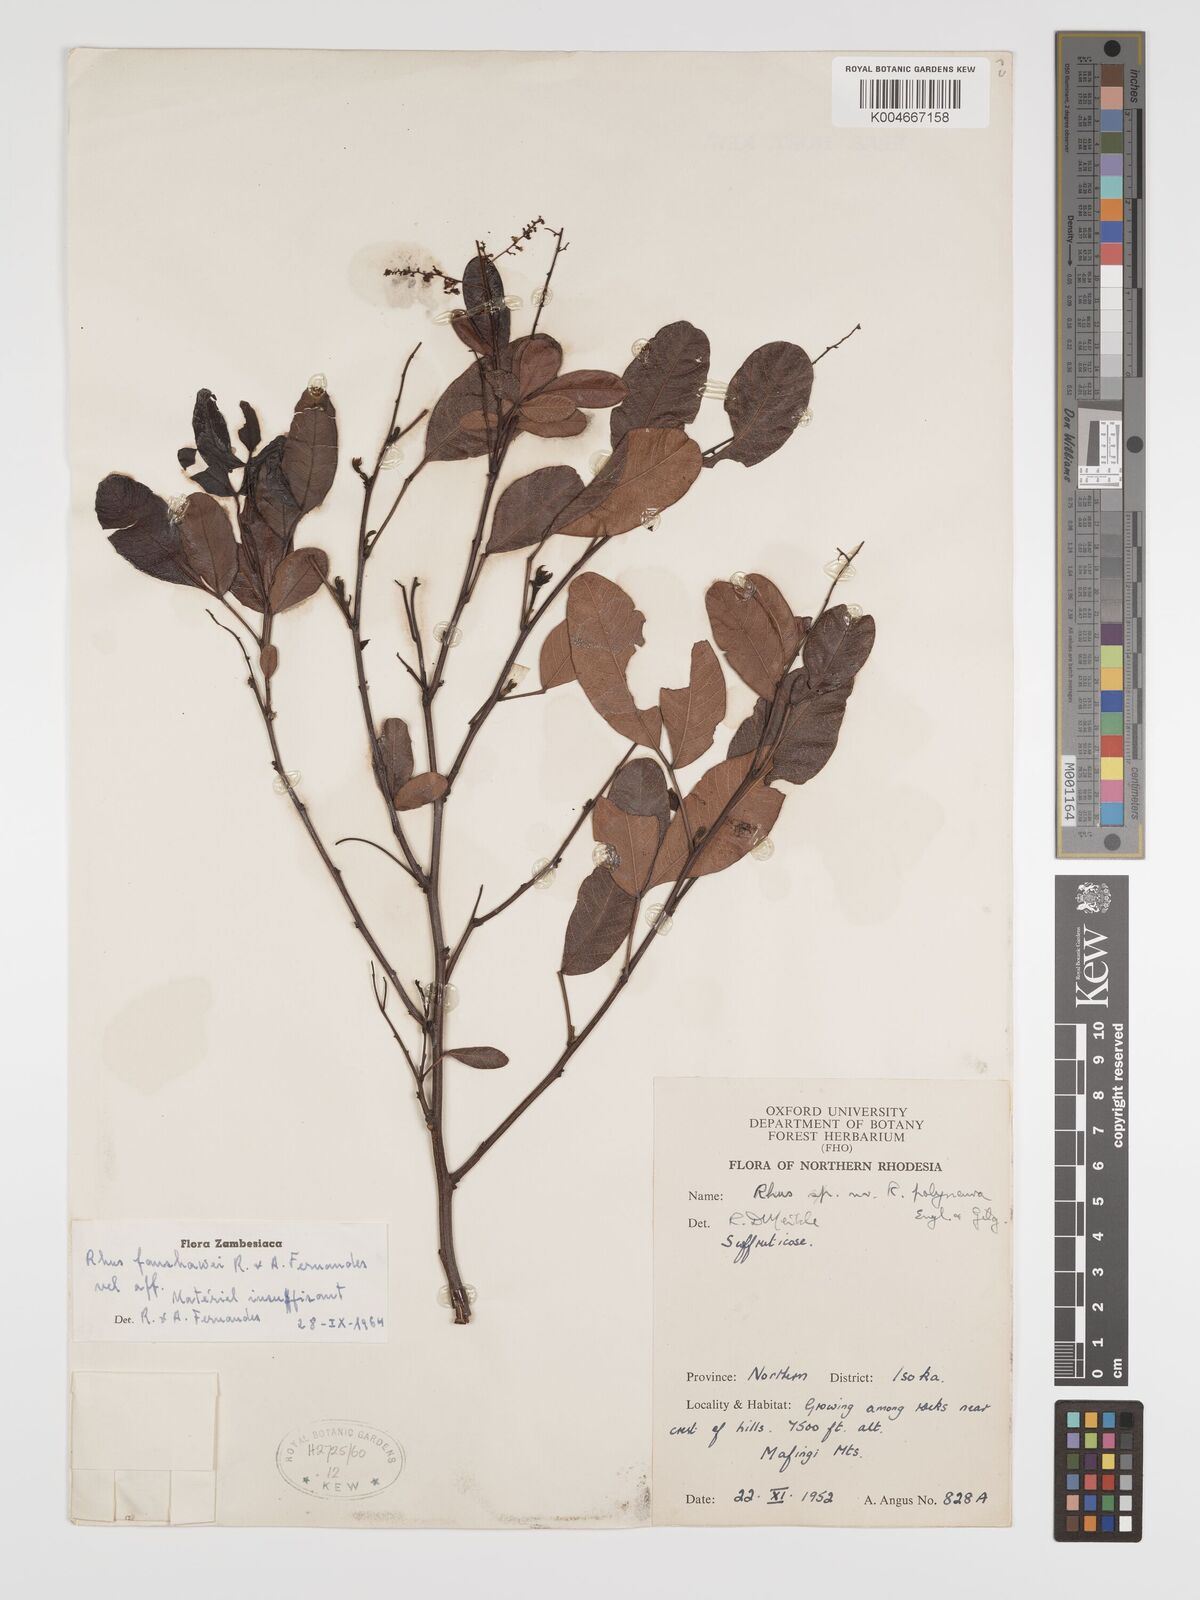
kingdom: Plantae
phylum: Tracheophyta
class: Magnoliopsida
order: Sapindales
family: Anacardiaceae
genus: Searsia
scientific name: Searsia magalismontana
